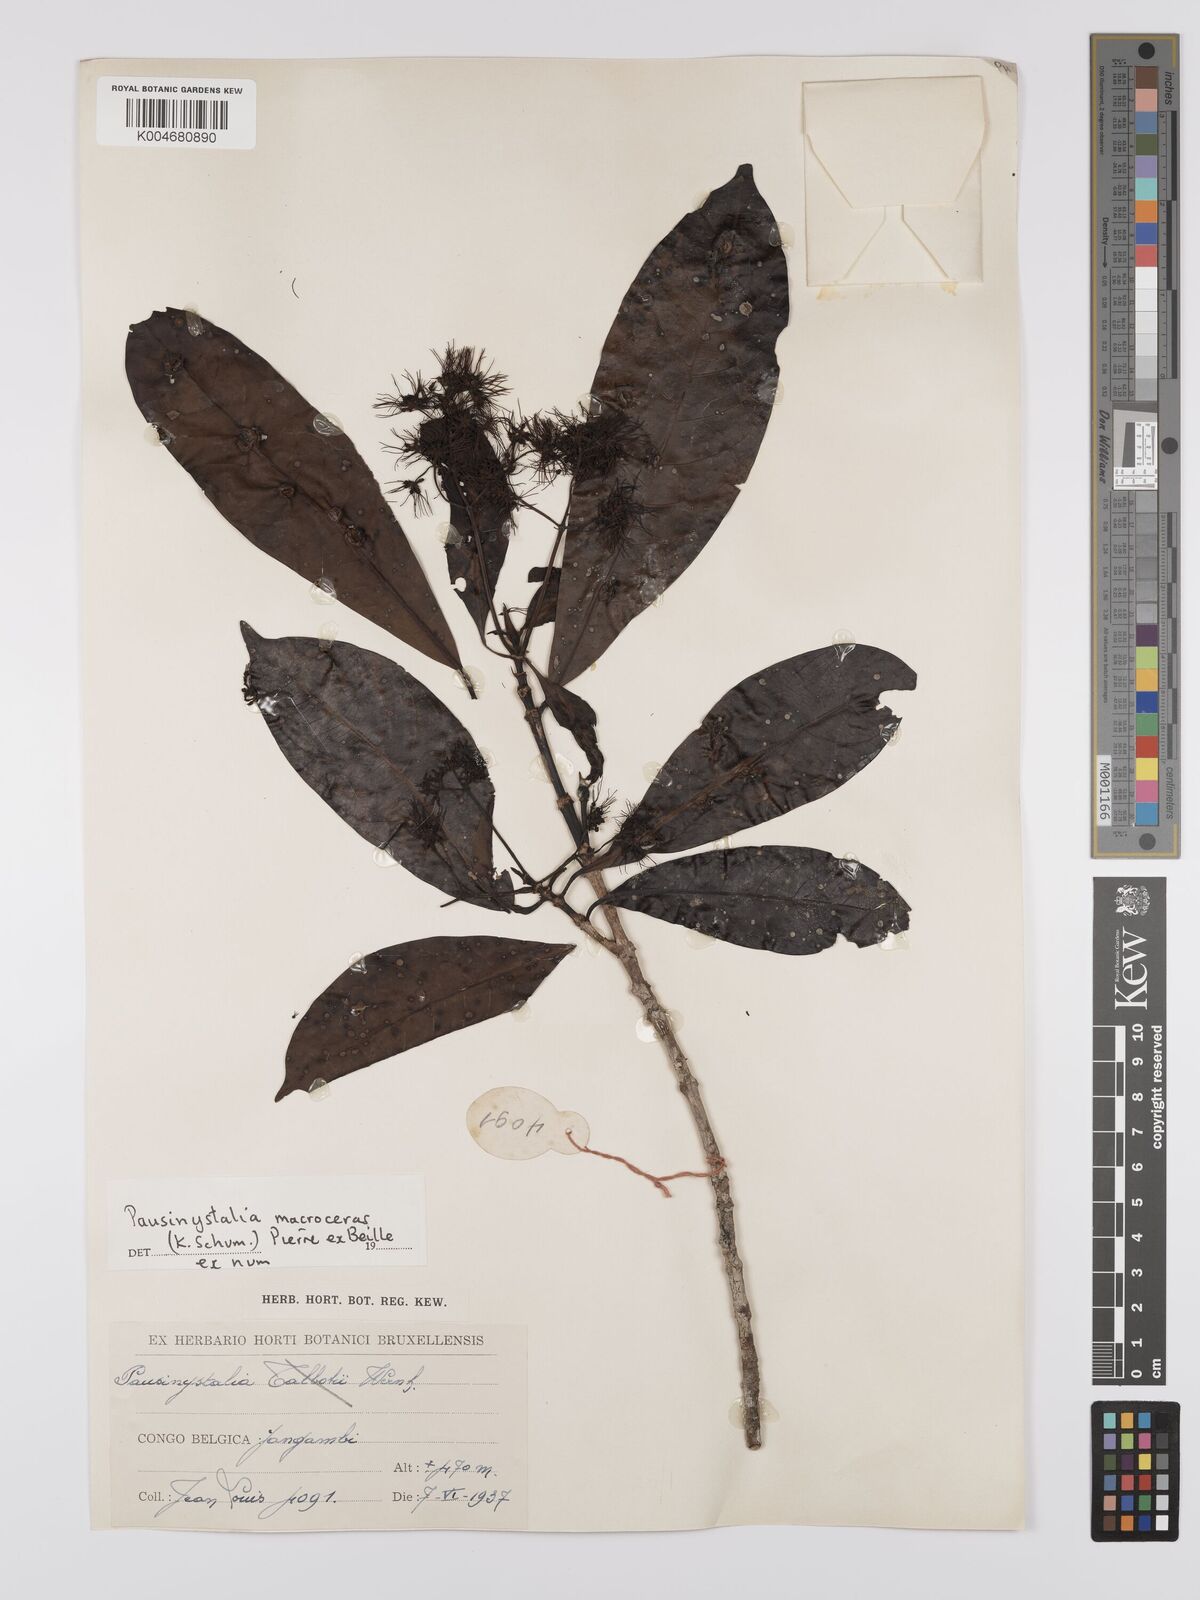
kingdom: Plantae
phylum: Tracheophyta
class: Magnoliopsida
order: Gentianales
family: Rubiaceae
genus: Corynanthe
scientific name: Corynanthe macroceras
